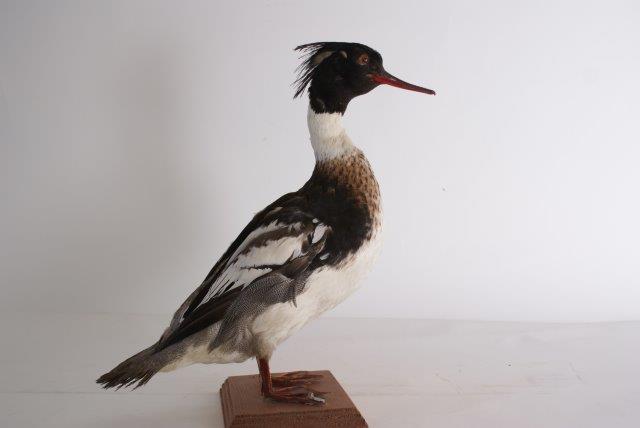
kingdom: Animalia
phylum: Chordata
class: Aves
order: Anseriformes
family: Anatidae
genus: Mergus
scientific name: Mergus serrator
